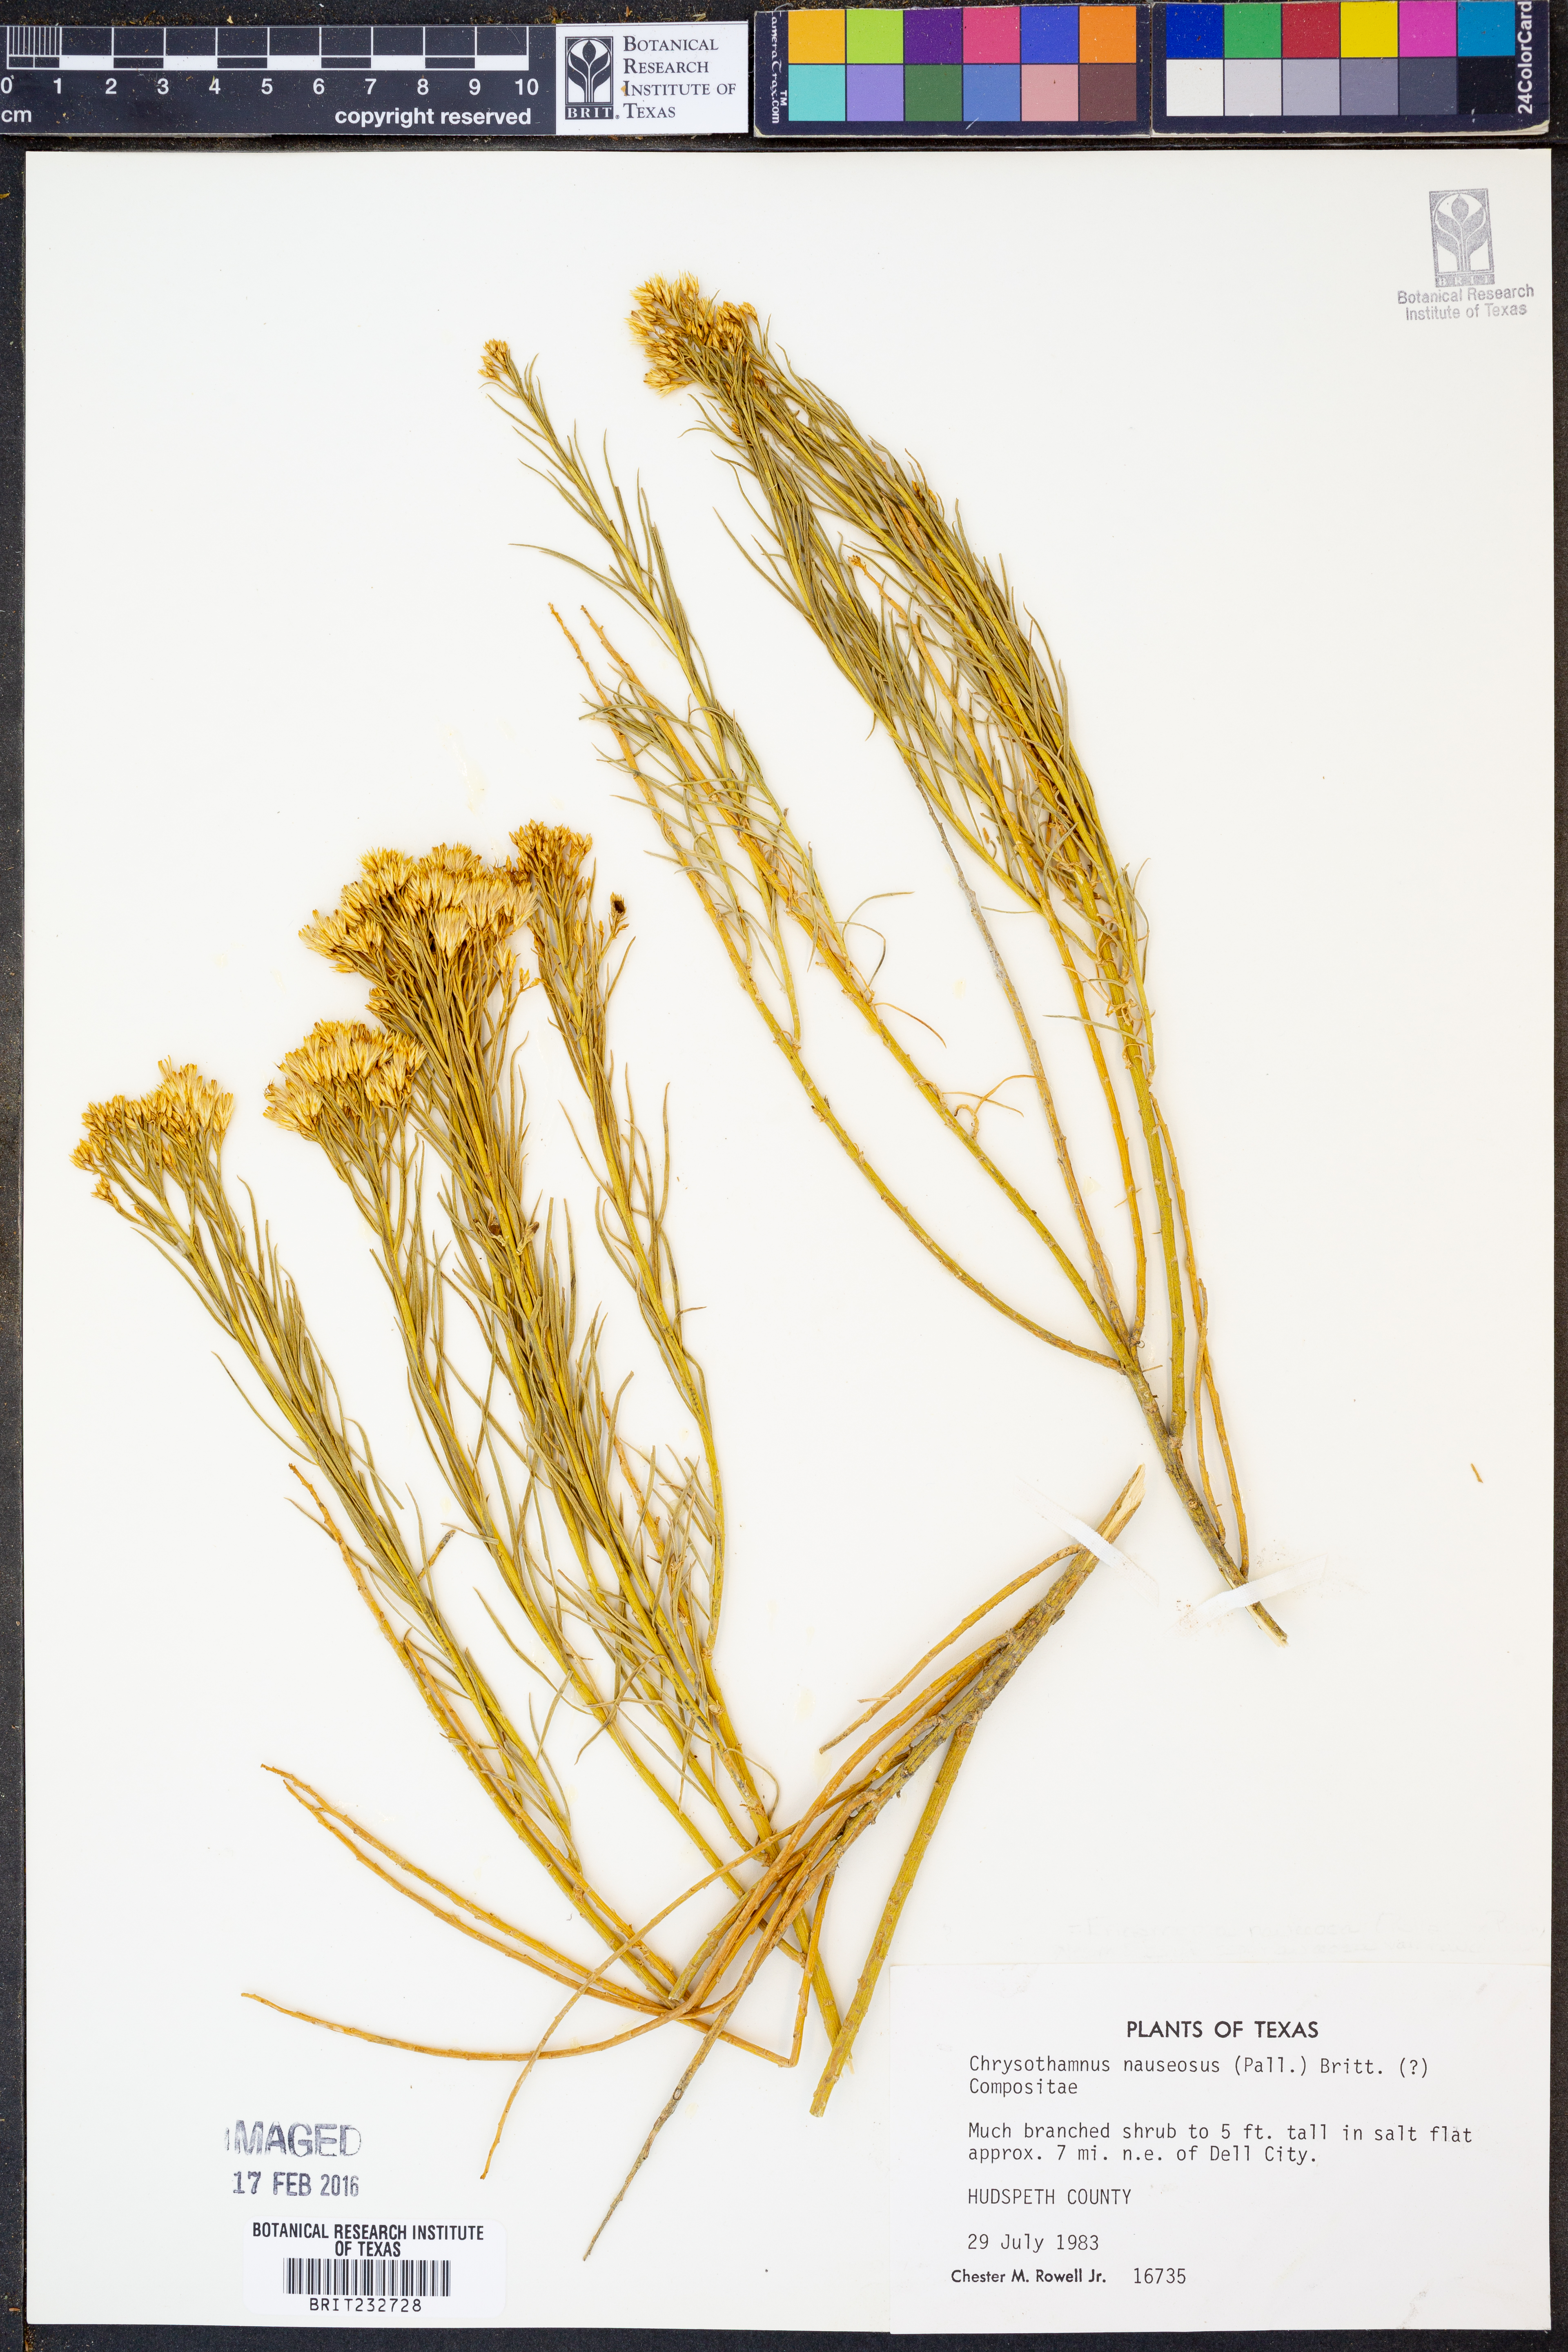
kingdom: Plantae
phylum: Tracheophyta
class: Magnoliopsida
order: Asterales
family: Asteraceae
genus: Ericameria
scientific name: Ericameria nauseosa
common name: Rubber rabbitbrush
